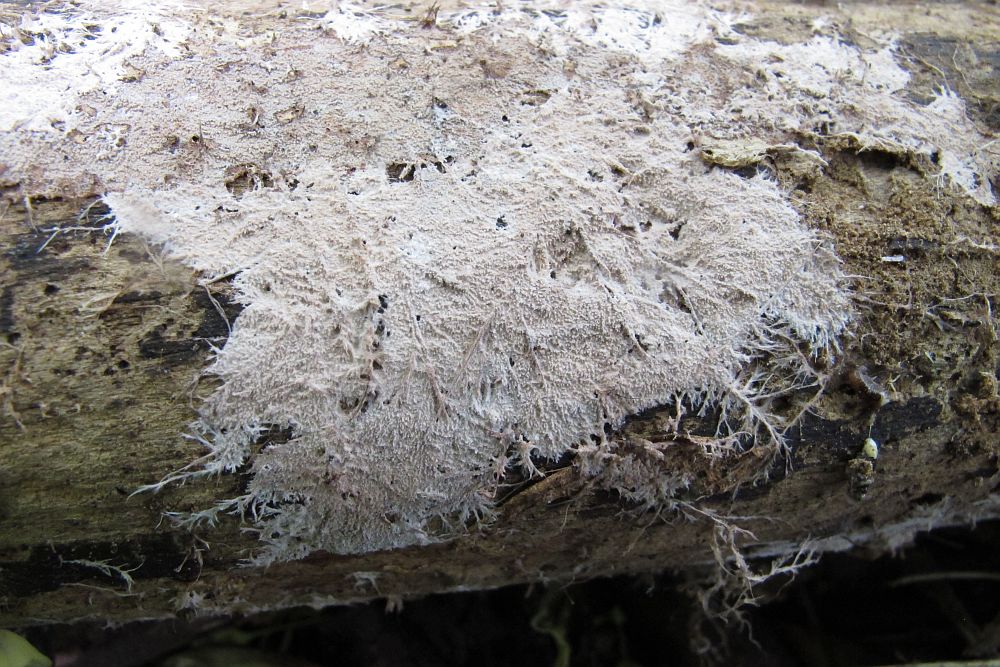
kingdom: Fungi
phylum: Basidiomycota
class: Agaricomycetes
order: Polyporales
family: Steccherinaceae
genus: Steccherinum
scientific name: Steccherinum fimbriatum
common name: trådet skønpig
